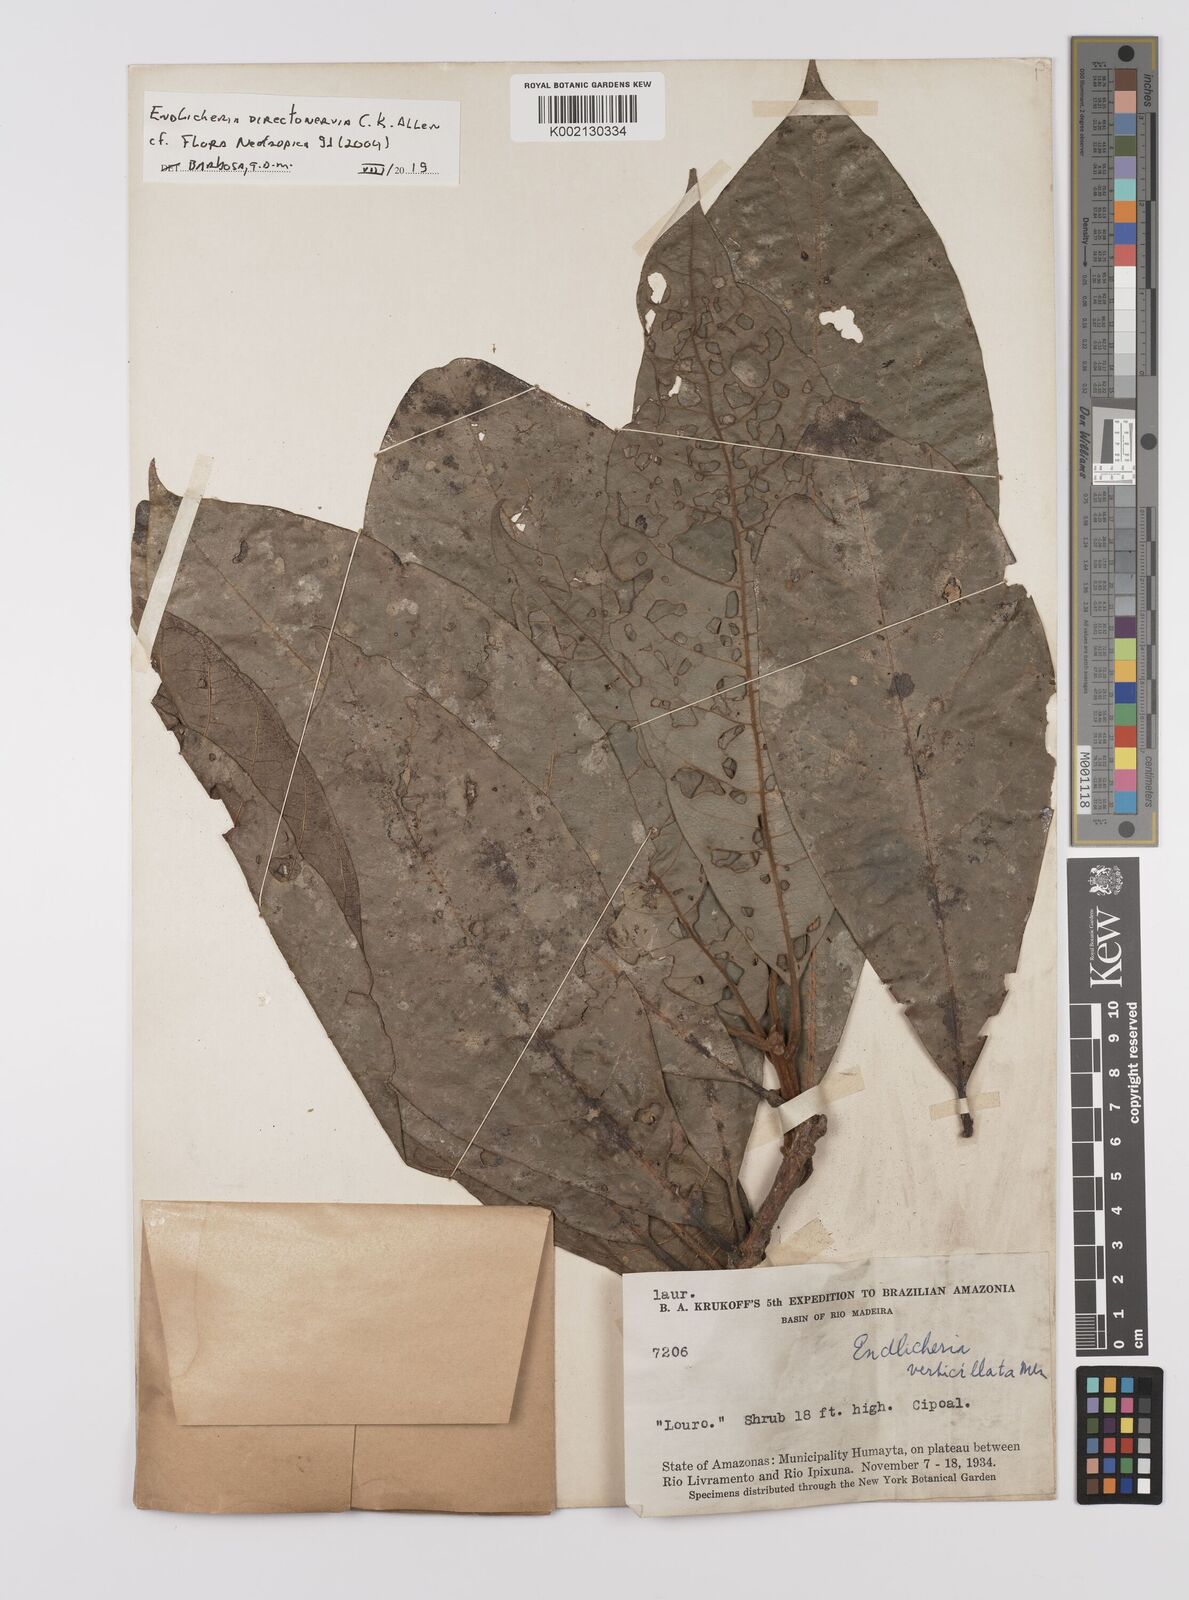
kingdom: Plantae
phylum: Tracheophyta
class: Magnoliopsida
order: Laurales
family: Lauraceae
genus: Endlicheria
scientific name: Endlicheria directonervia
